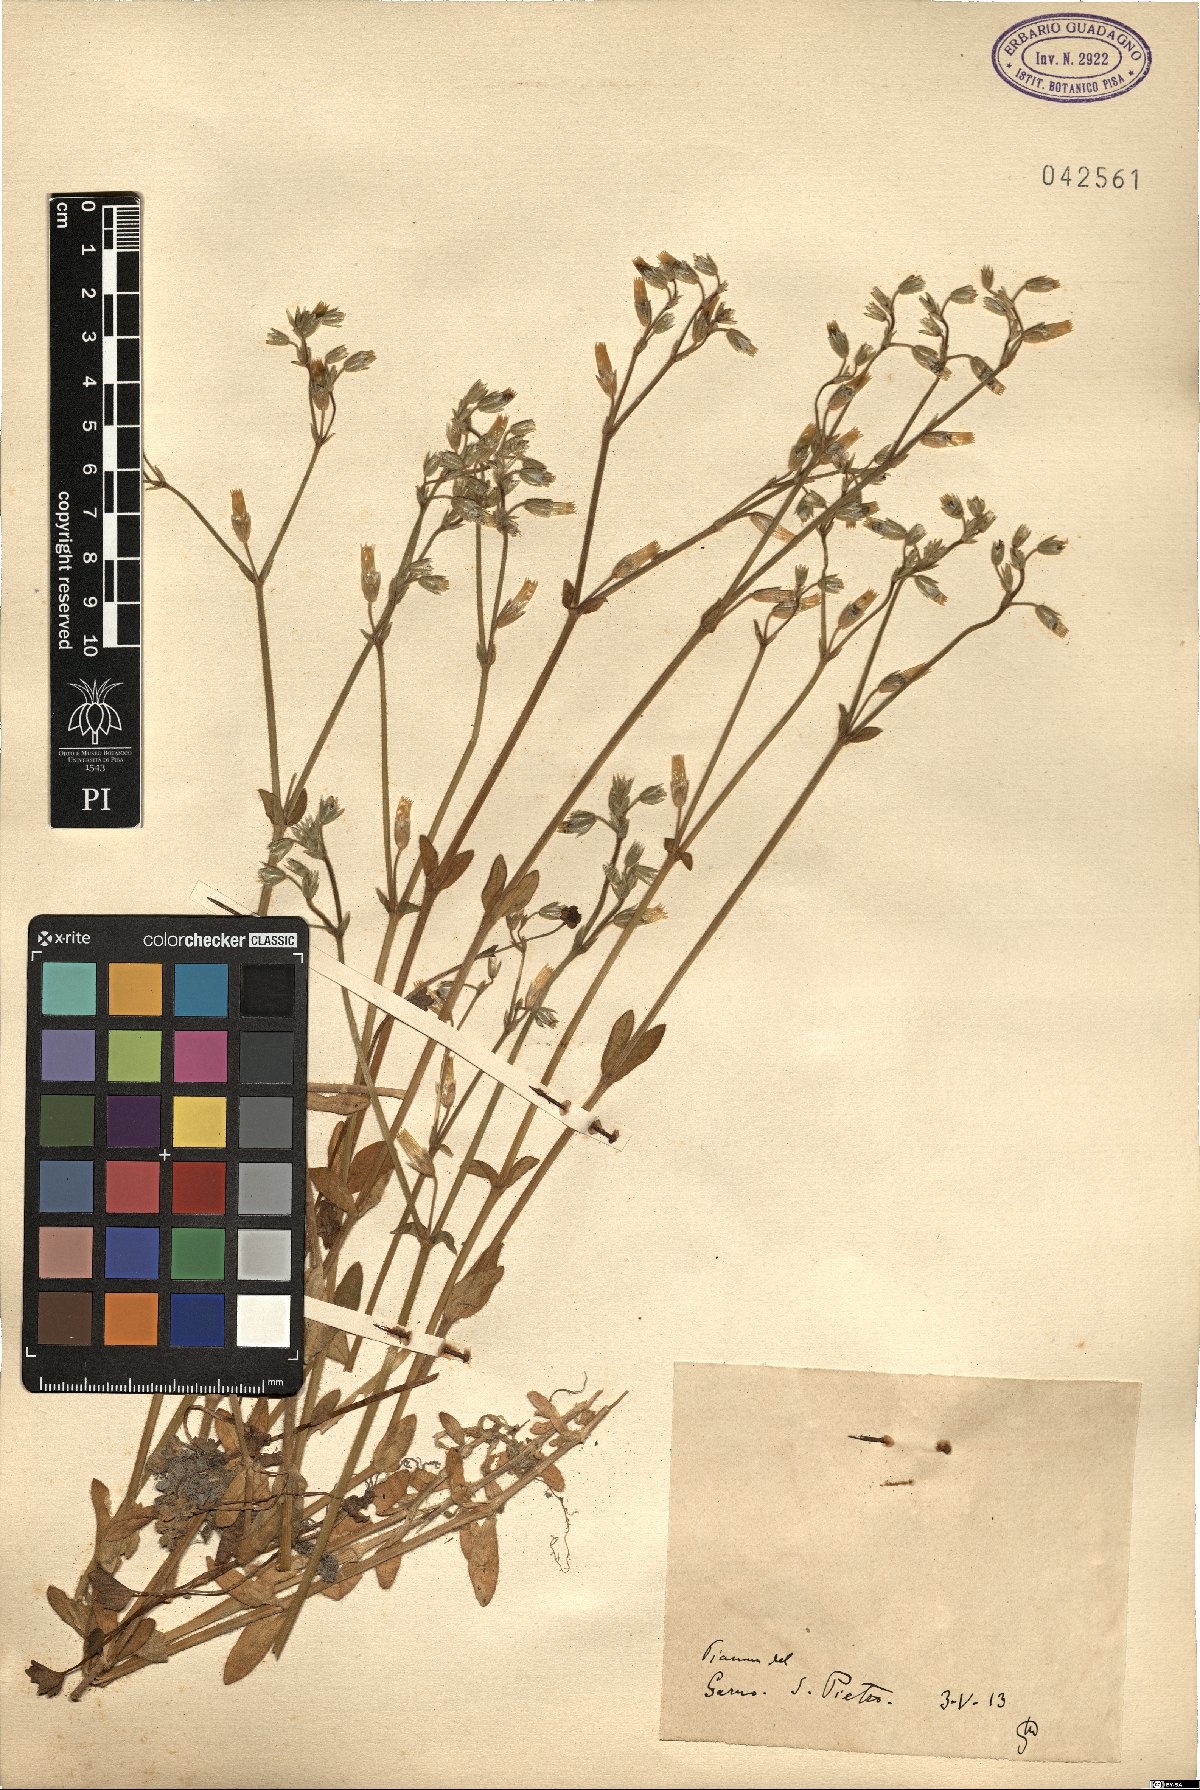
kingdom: Plantae
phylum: Tracheophyta
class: Magnoliopsida
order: Caryophyllales
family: Caryophyllaceae
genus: Cerastium
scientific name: Cerastium
